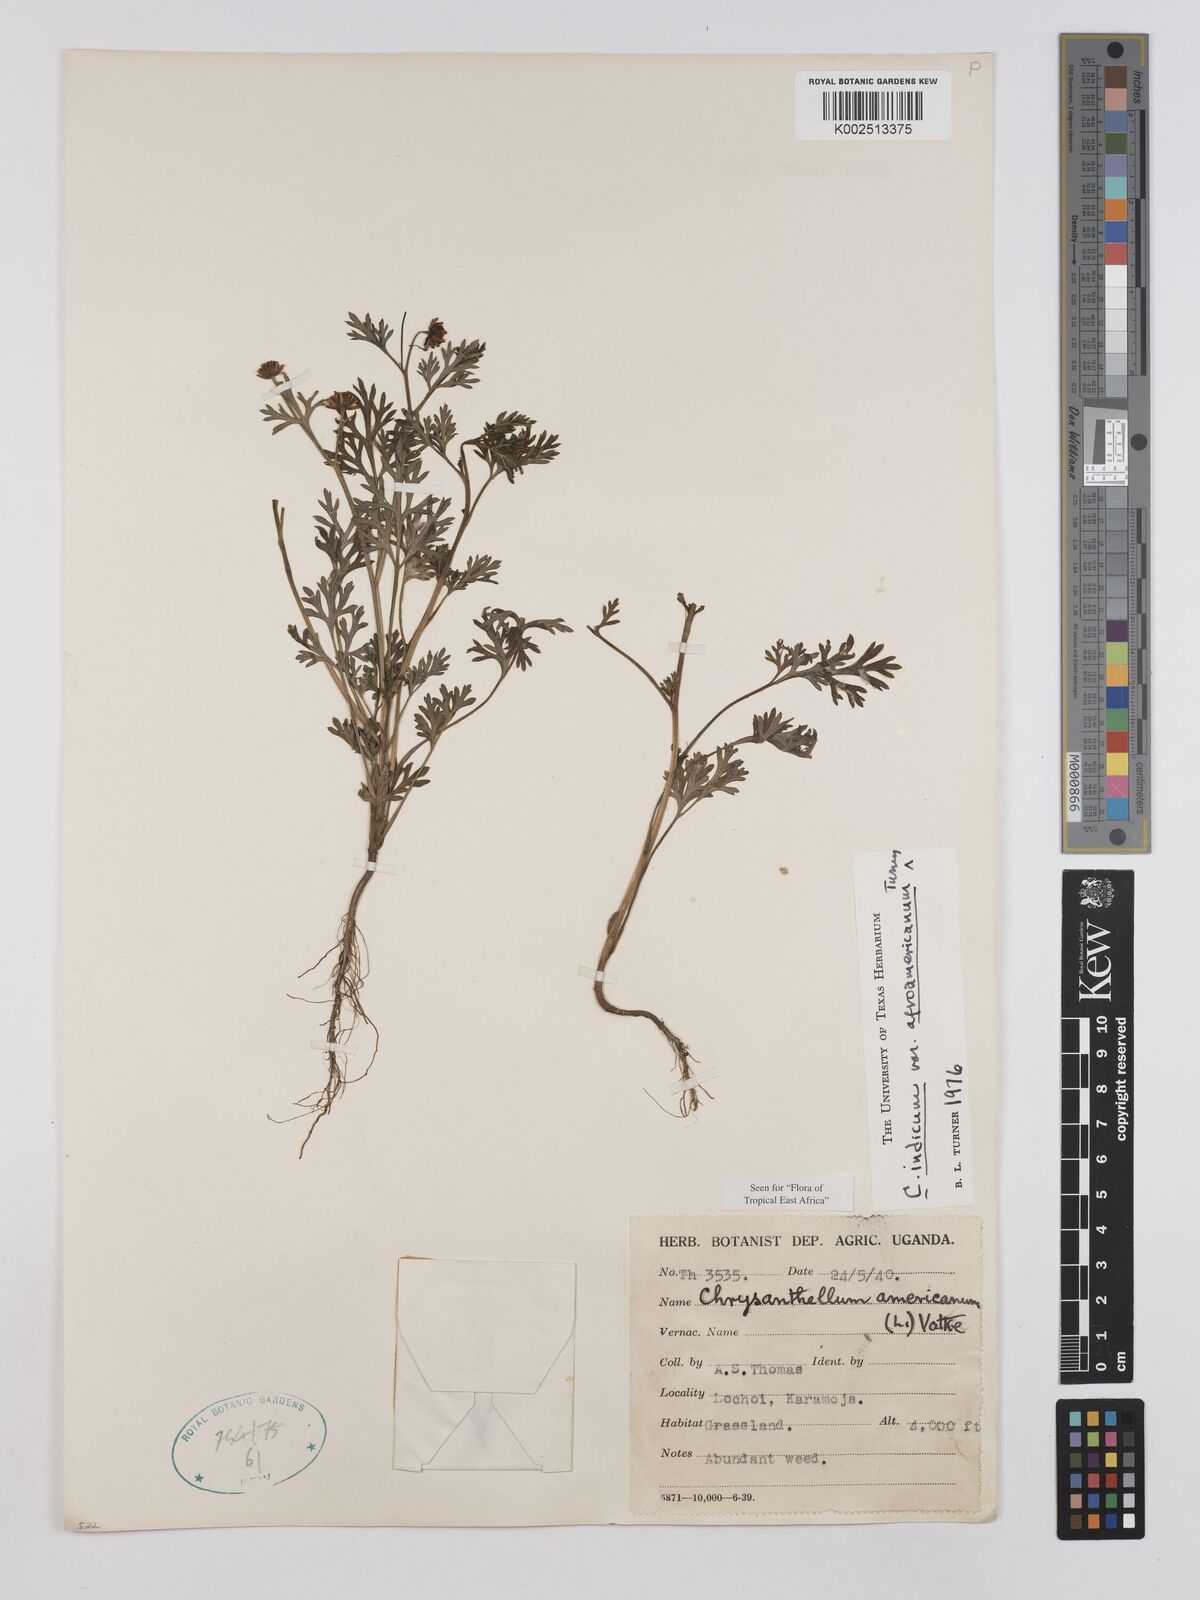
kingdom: Plantae
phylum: Tracheophyta
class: Magnoliopsida
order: Asterales
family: Asteraceae
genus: Chrysanthellum
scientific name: Chrysanthellum indicum
